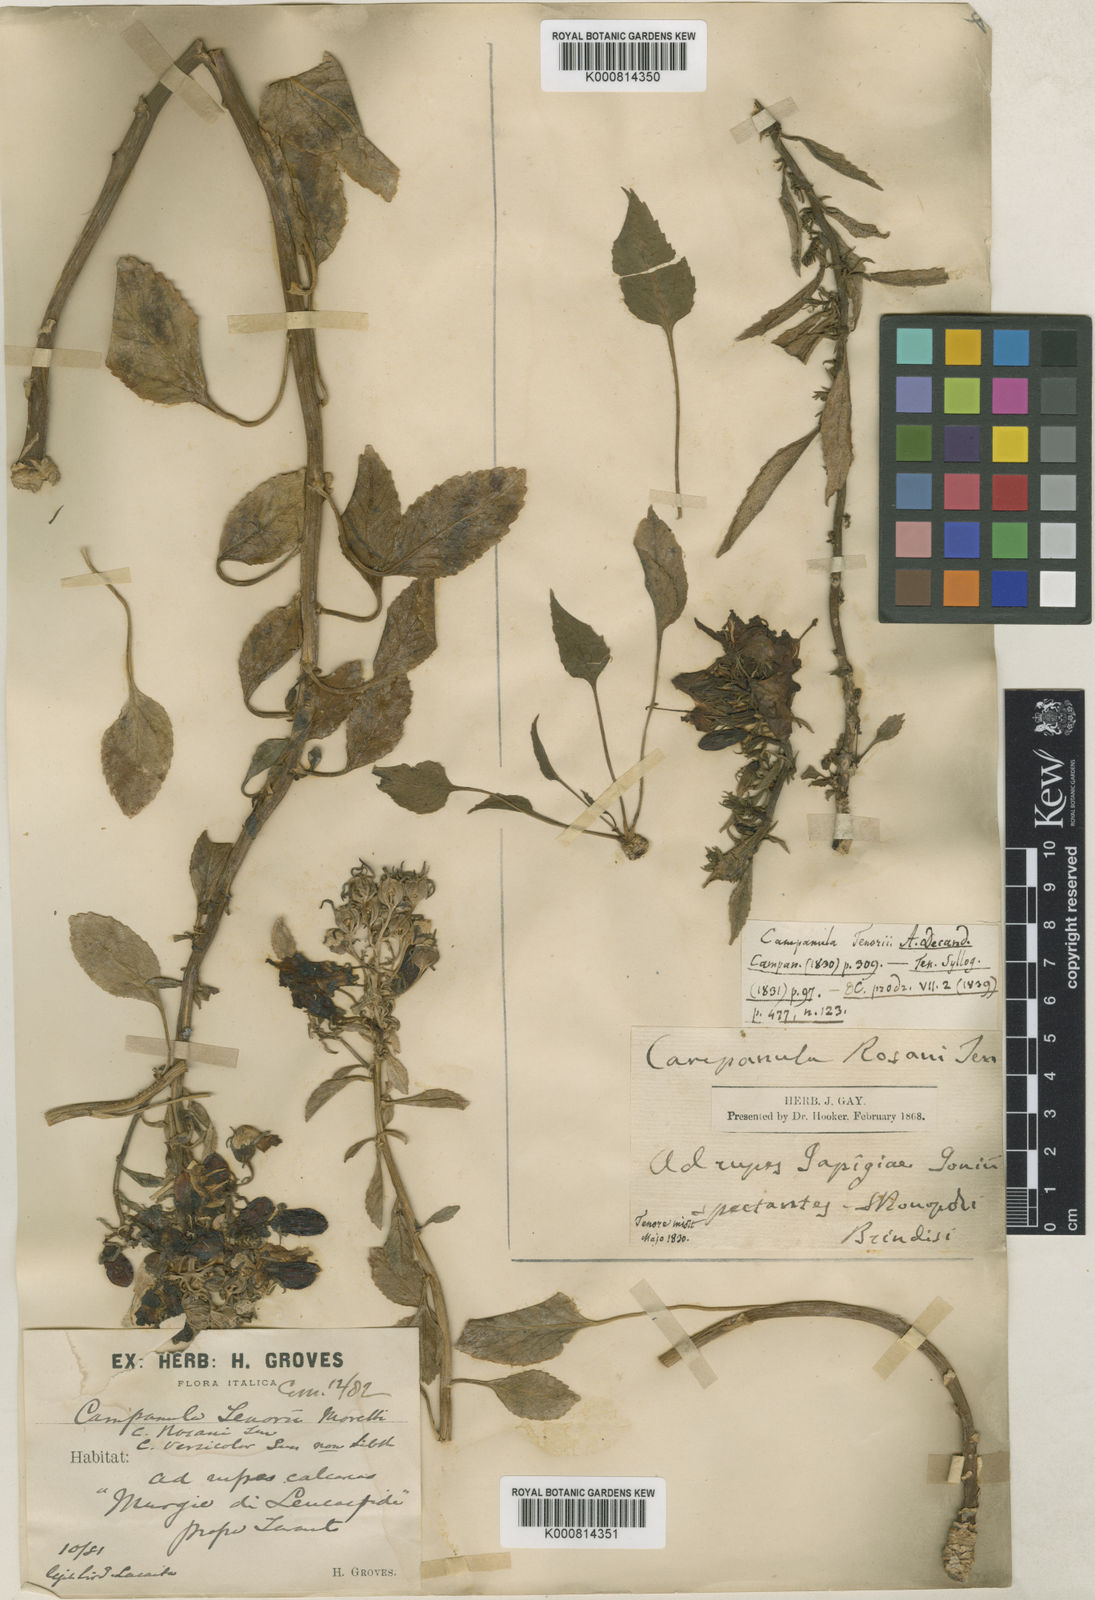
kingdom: Plantae
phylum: Tracheophyta
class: Magnoliopsida
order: Asterales
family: Campanulaceae
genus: Campanula
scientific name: Campanula
